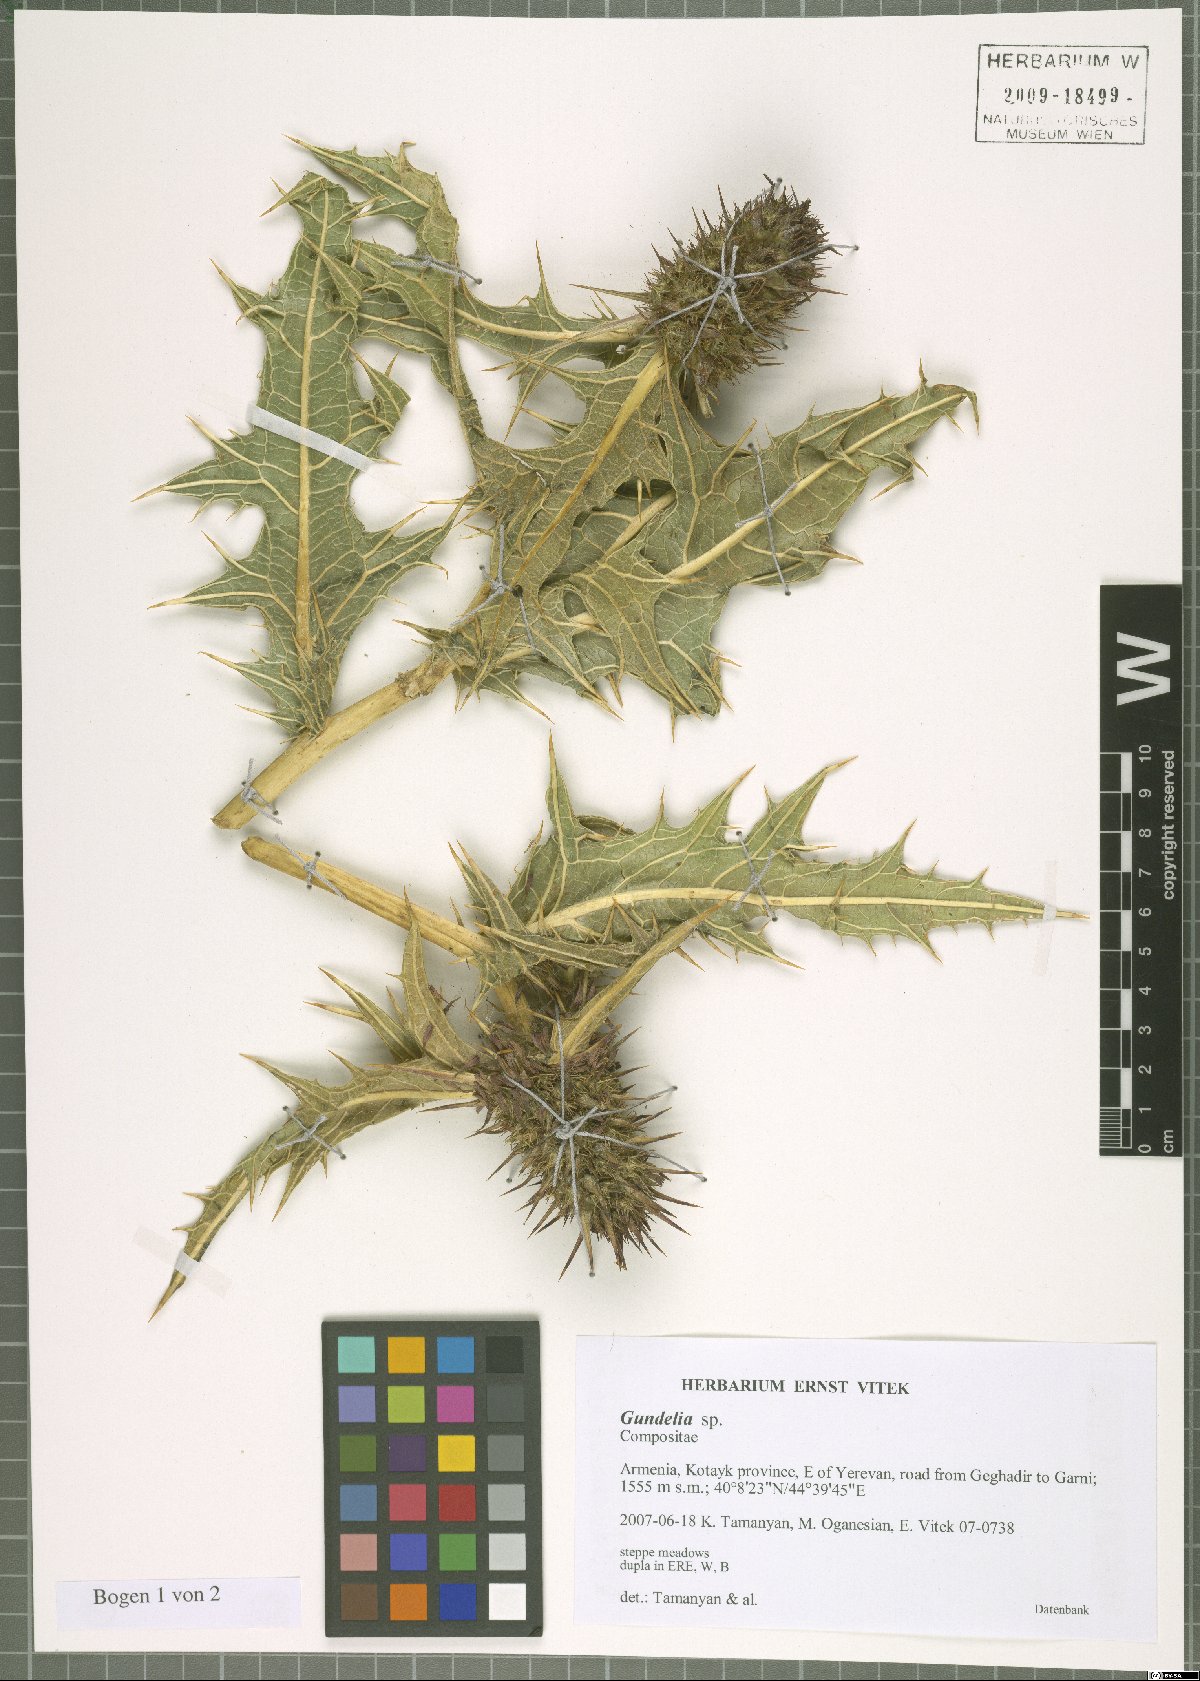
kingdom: Plantae
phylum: Tracheophyta
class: Magnoliopsida
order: Asterales
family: Asteraceae
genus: Gundelia
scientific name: Gundelia armeniaca
